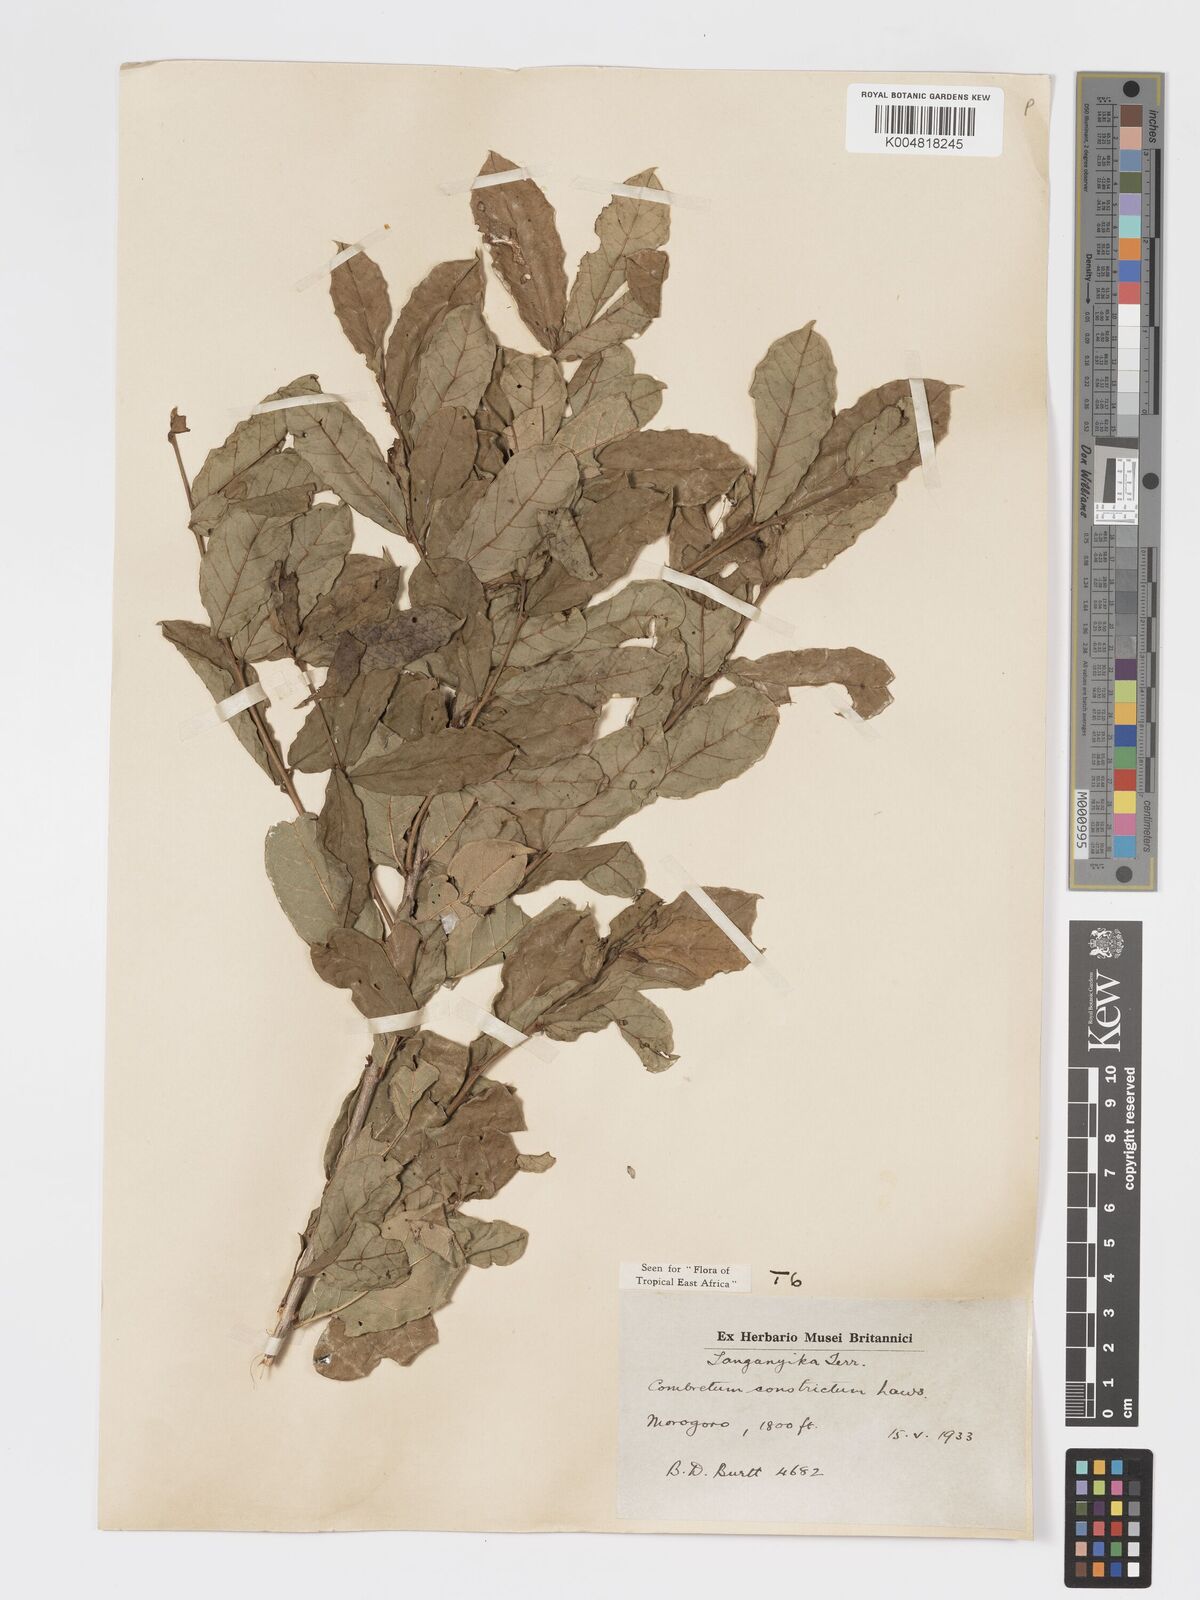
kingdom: Plantae
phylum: Tracheophyta
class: Magnoliopsida
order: Myrtales
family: Combretaceae
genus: Combretum
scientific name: Combretum constrictum
